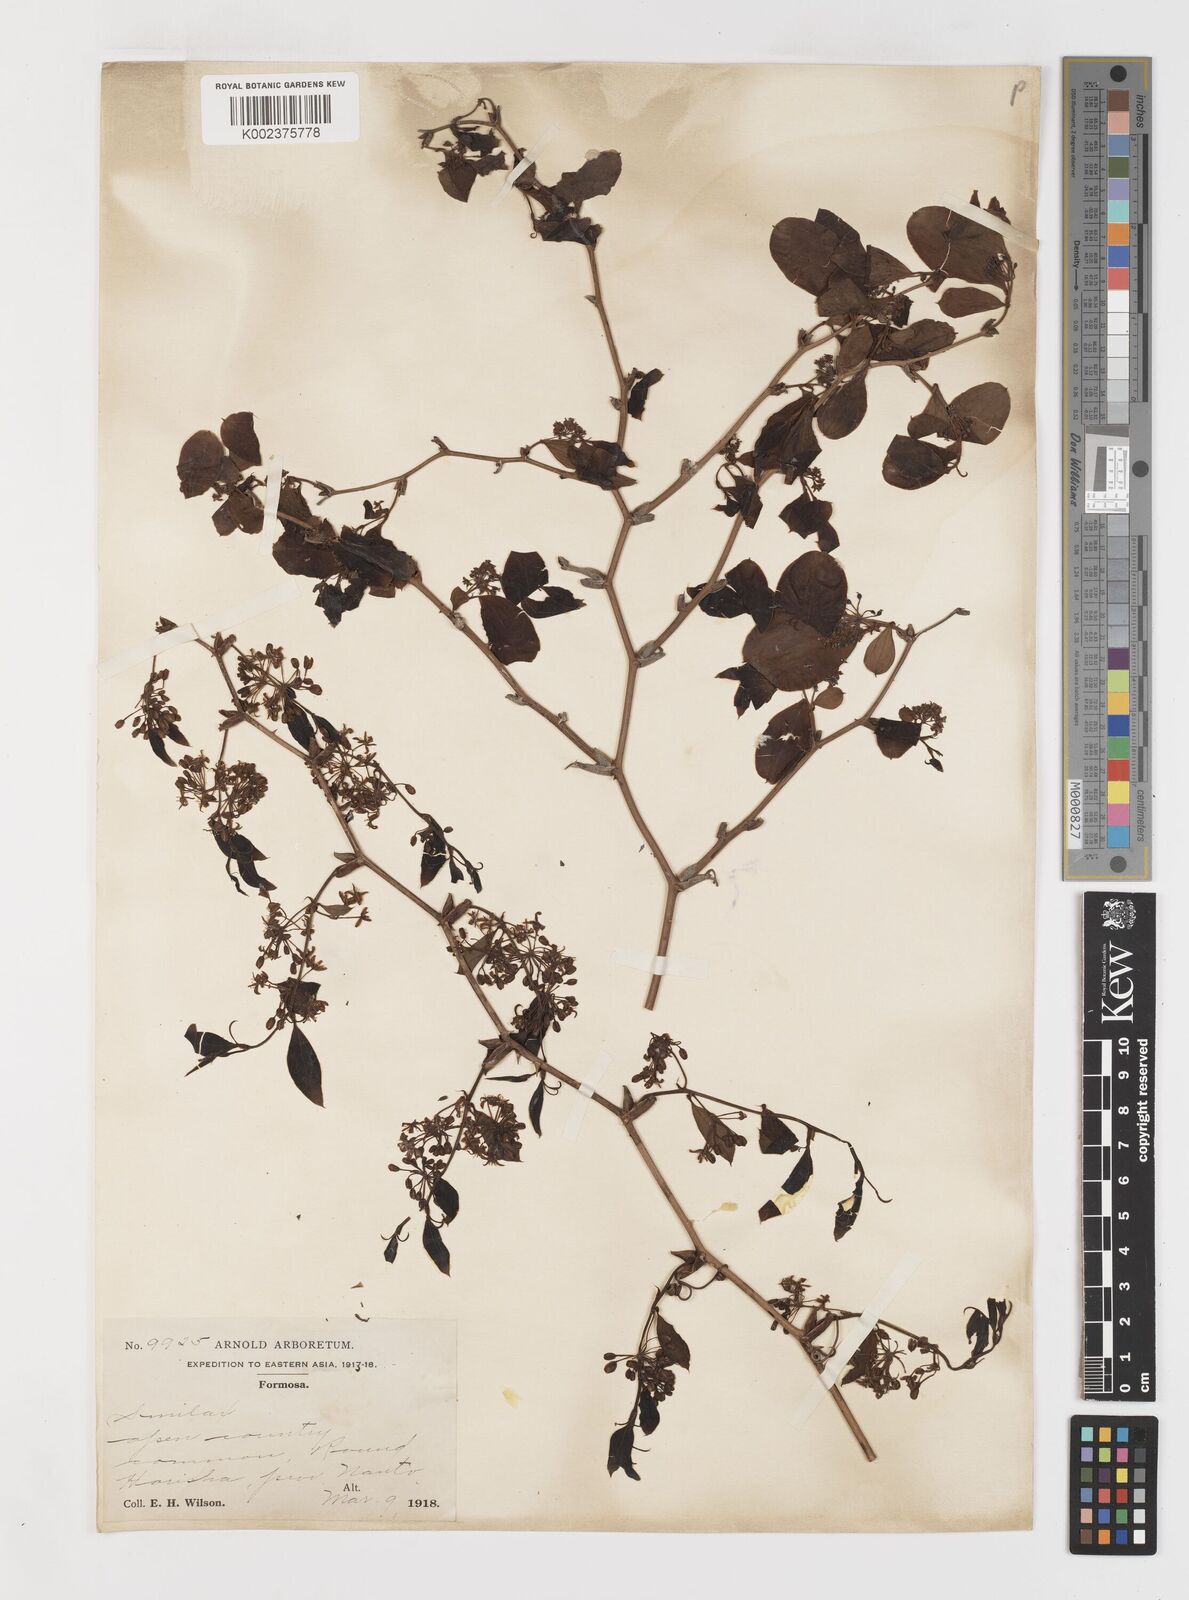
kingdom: Plantae
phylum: Tracheophyta
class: Liliopsida
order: Liliales
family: Smilacaceae
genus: Smilax
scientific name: Smilax china
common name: Chinaroot
